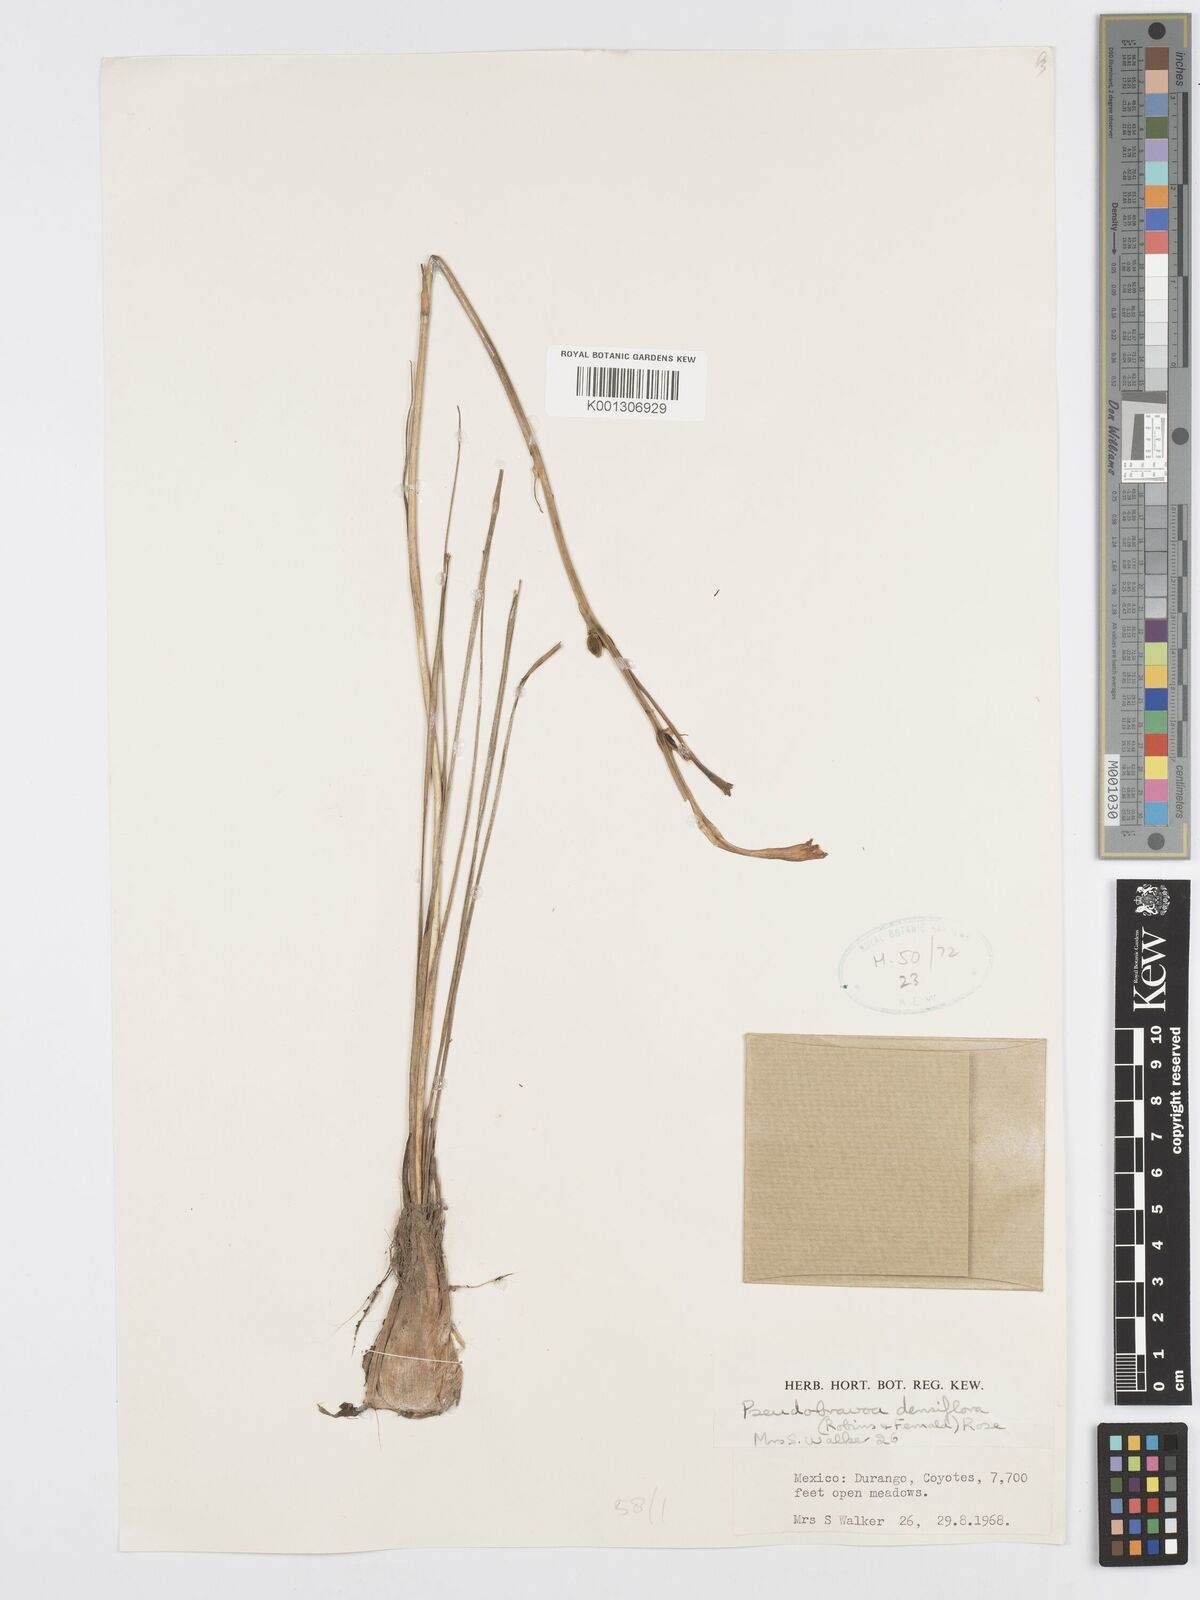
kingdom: Plantae
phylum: Tracheophyta
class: Liliopsida
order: Asparagales
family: Asparagaceae
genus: Agave
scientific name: Agave neonelsonii
